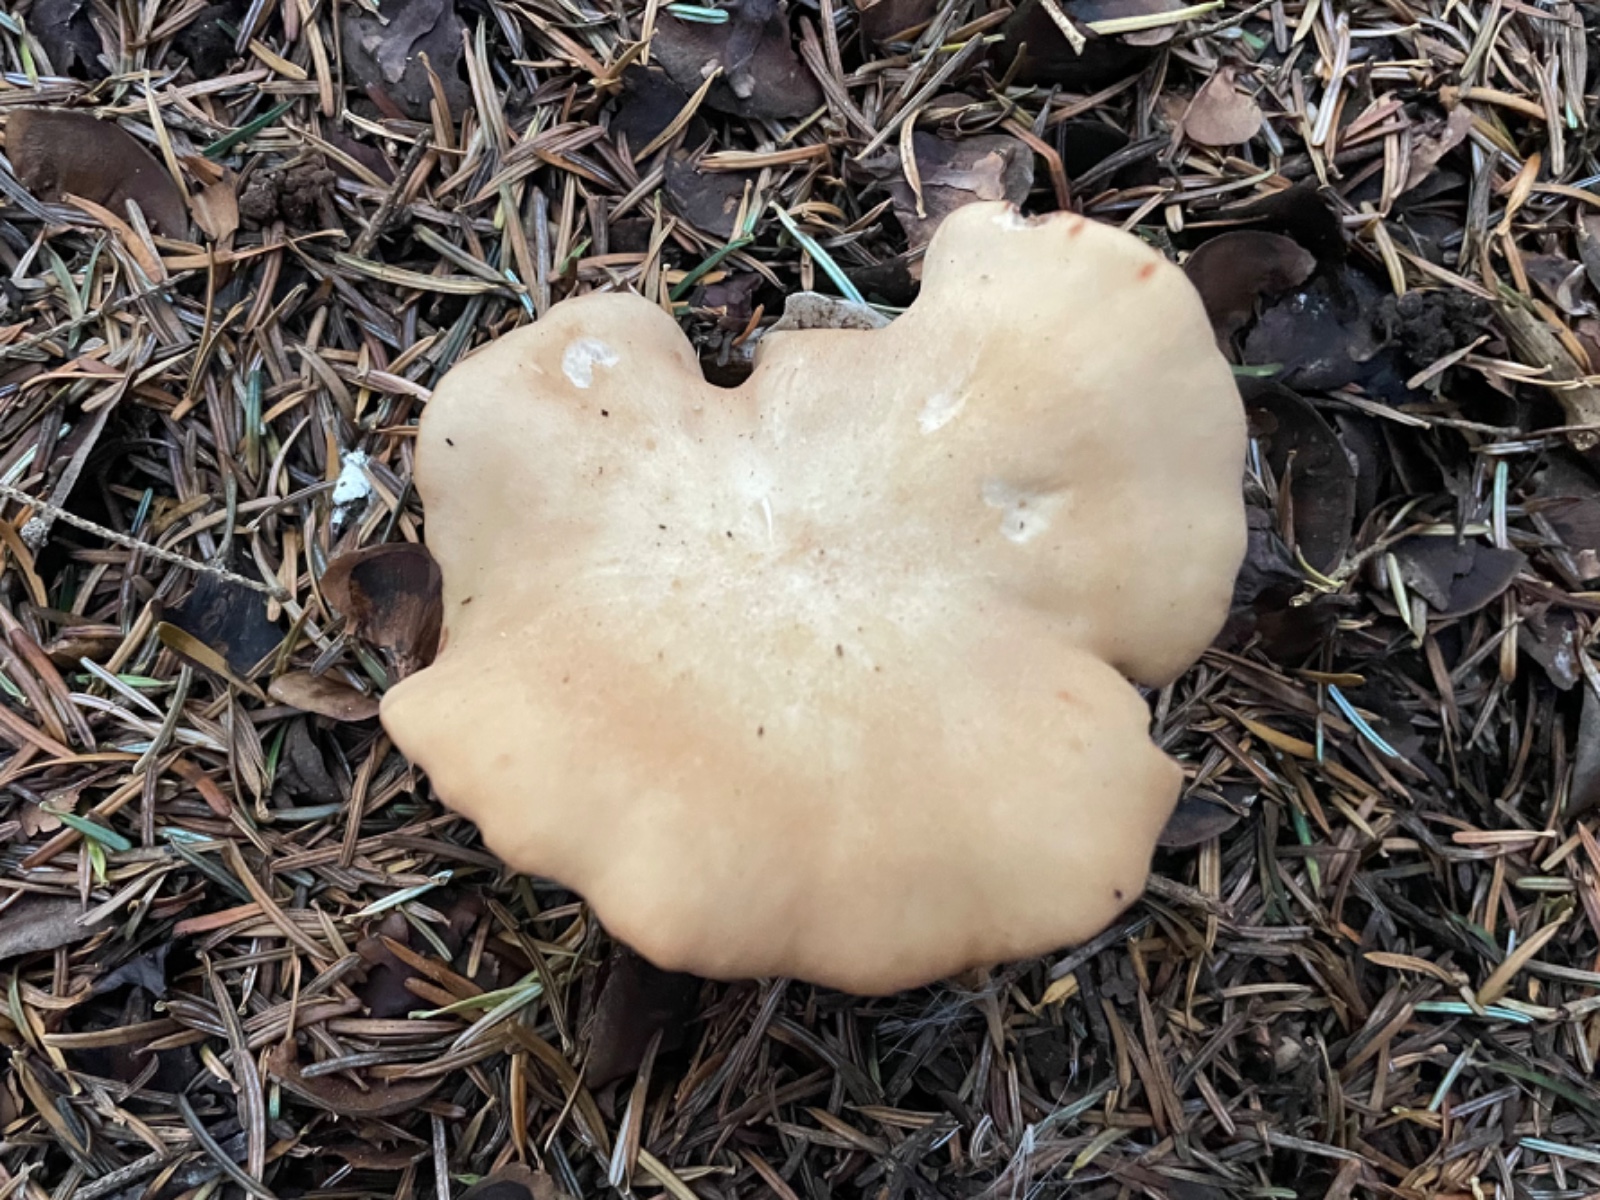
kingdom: Fungi
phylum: Basidiomycota
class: Agaricomycetes
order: Agaricales
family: Entolomataceae
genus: Clitopilus
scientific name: Clitopilus geminus
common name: kødfarvet troldhat
